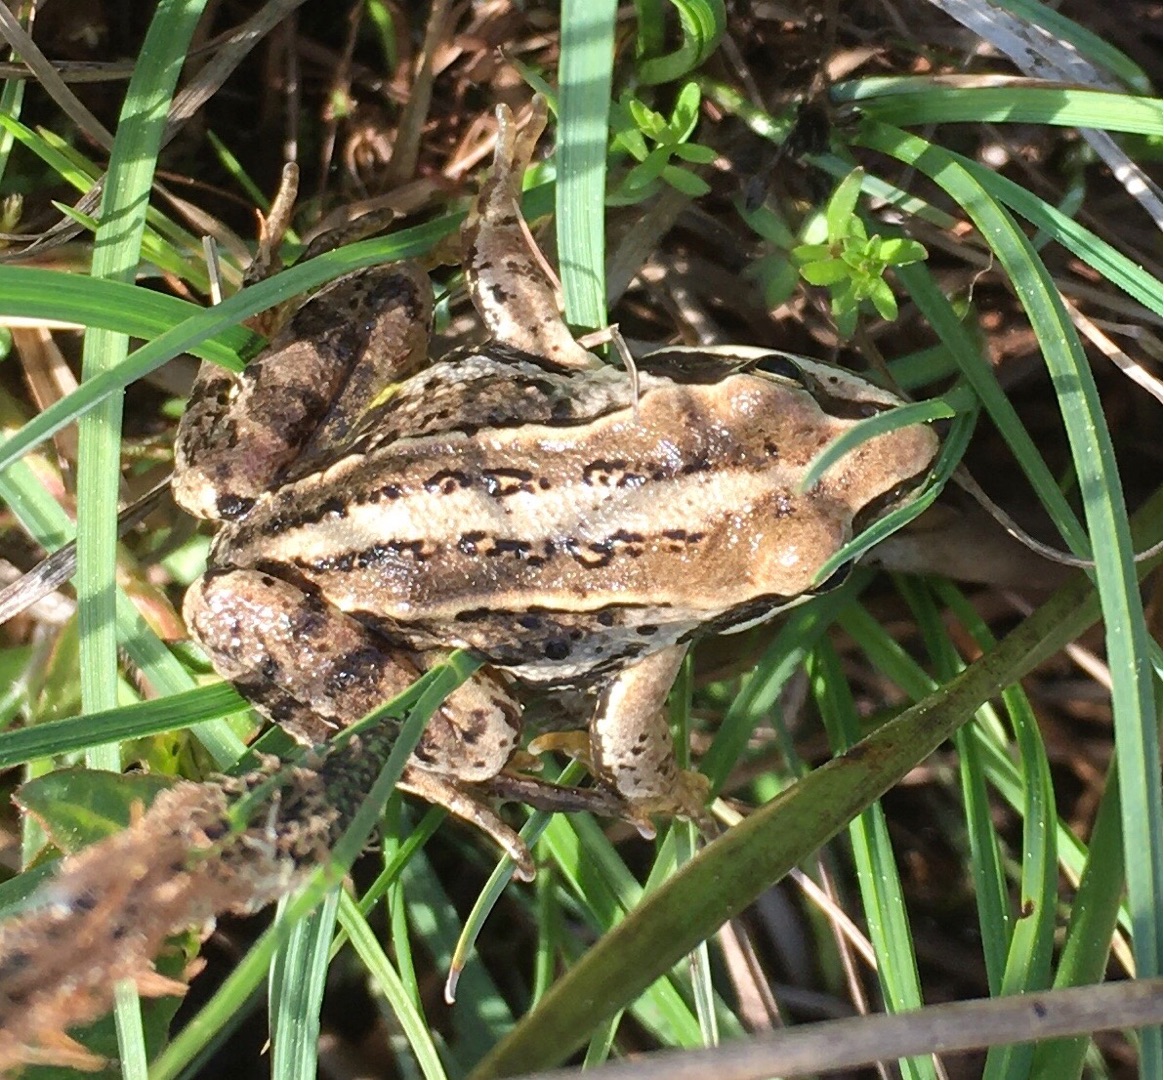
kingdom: Animalia
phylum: Chordata
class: Amphibia
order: Anura
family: Ranidae
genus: Rana
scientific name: Rana arvalis
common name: Spidssnudet frø
